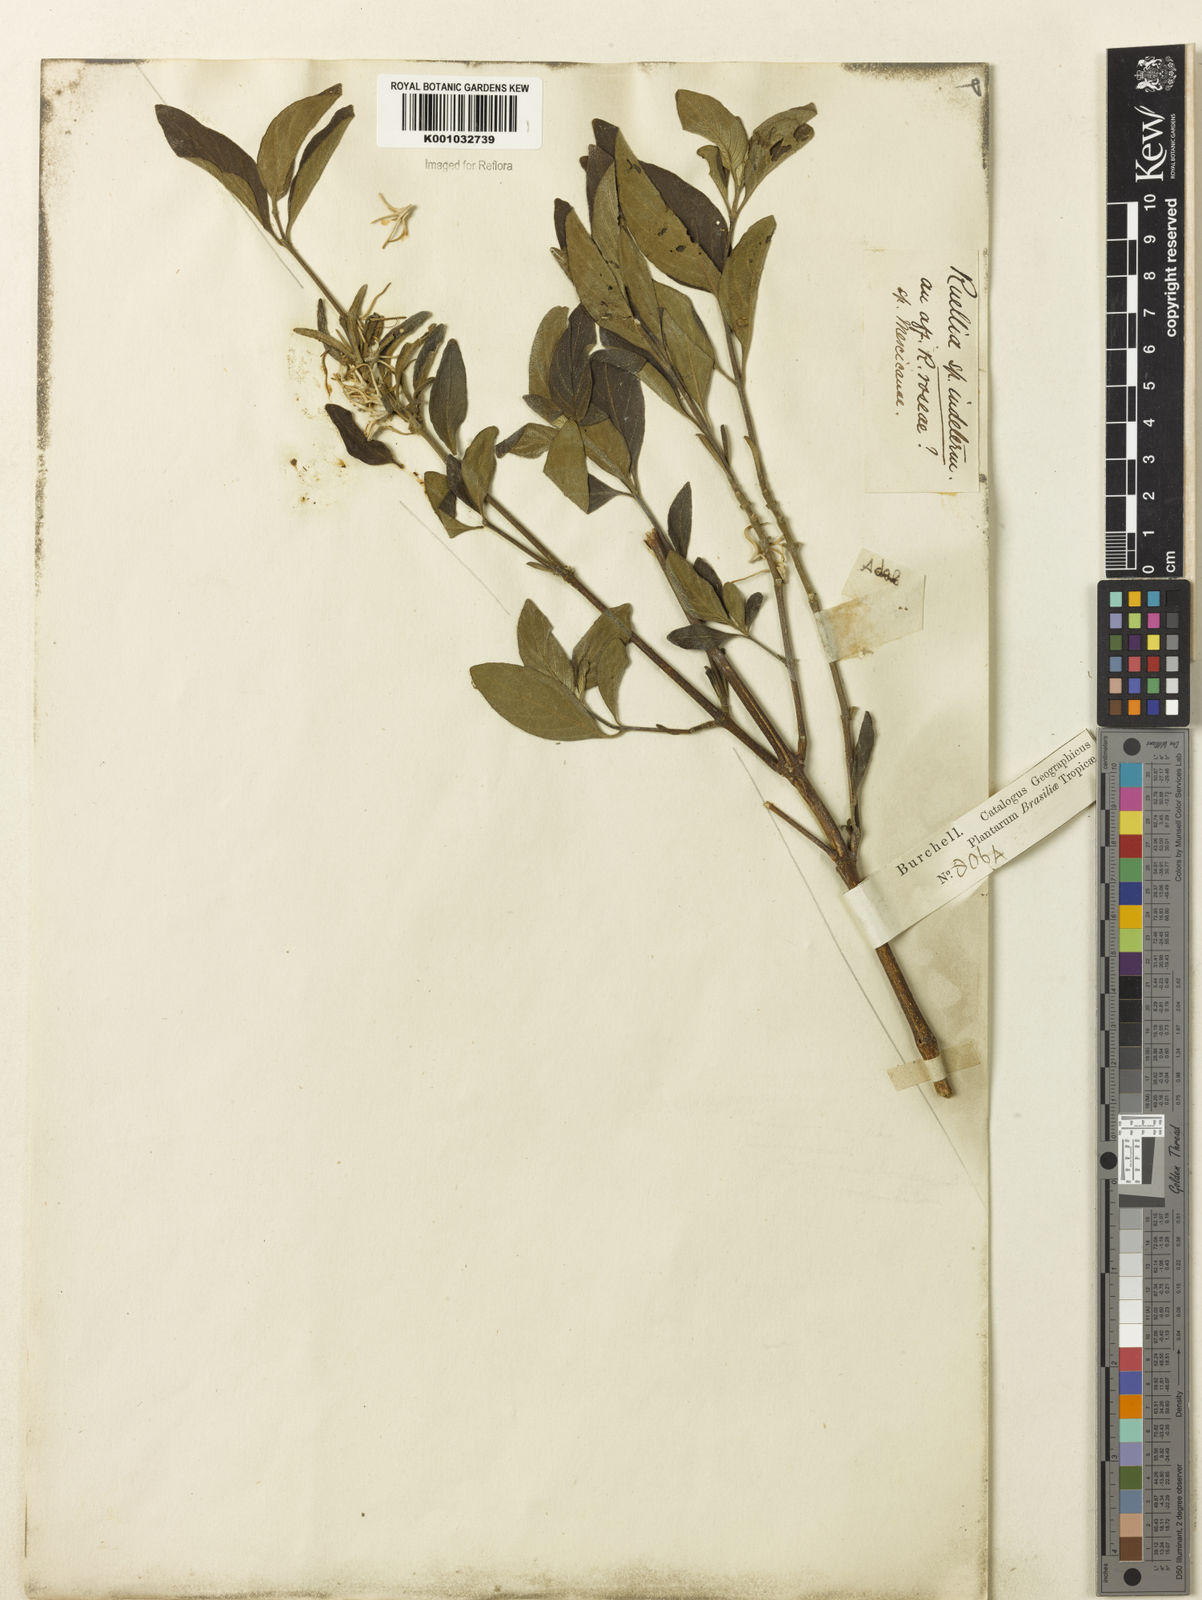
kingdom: Plantae
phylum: Tracheophyta
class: Magnoliopsida
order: Lamiales
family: Acanthaceae
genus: Ruellia
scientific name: Ruellia
